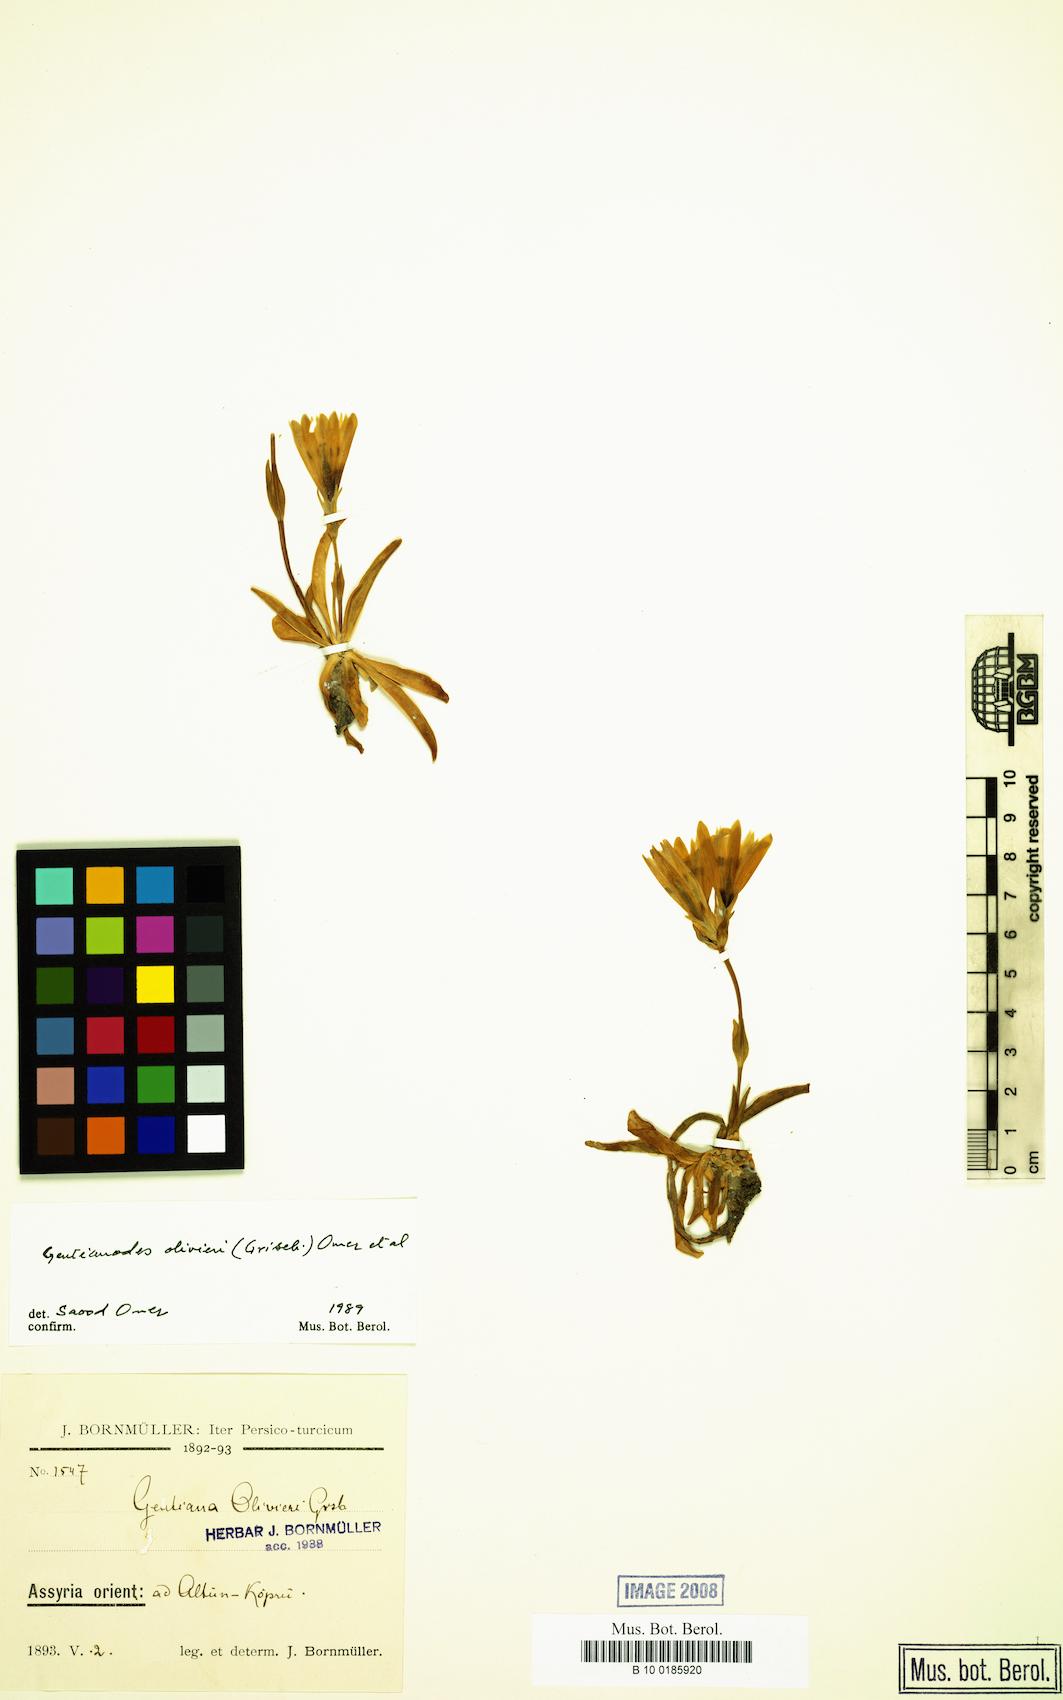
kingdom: Plantae
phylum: Tracheophyta
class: Magnoliopsida
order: Gentianales
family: Gentianaceae
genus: Gentiana
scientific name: Gentiana olivieri
